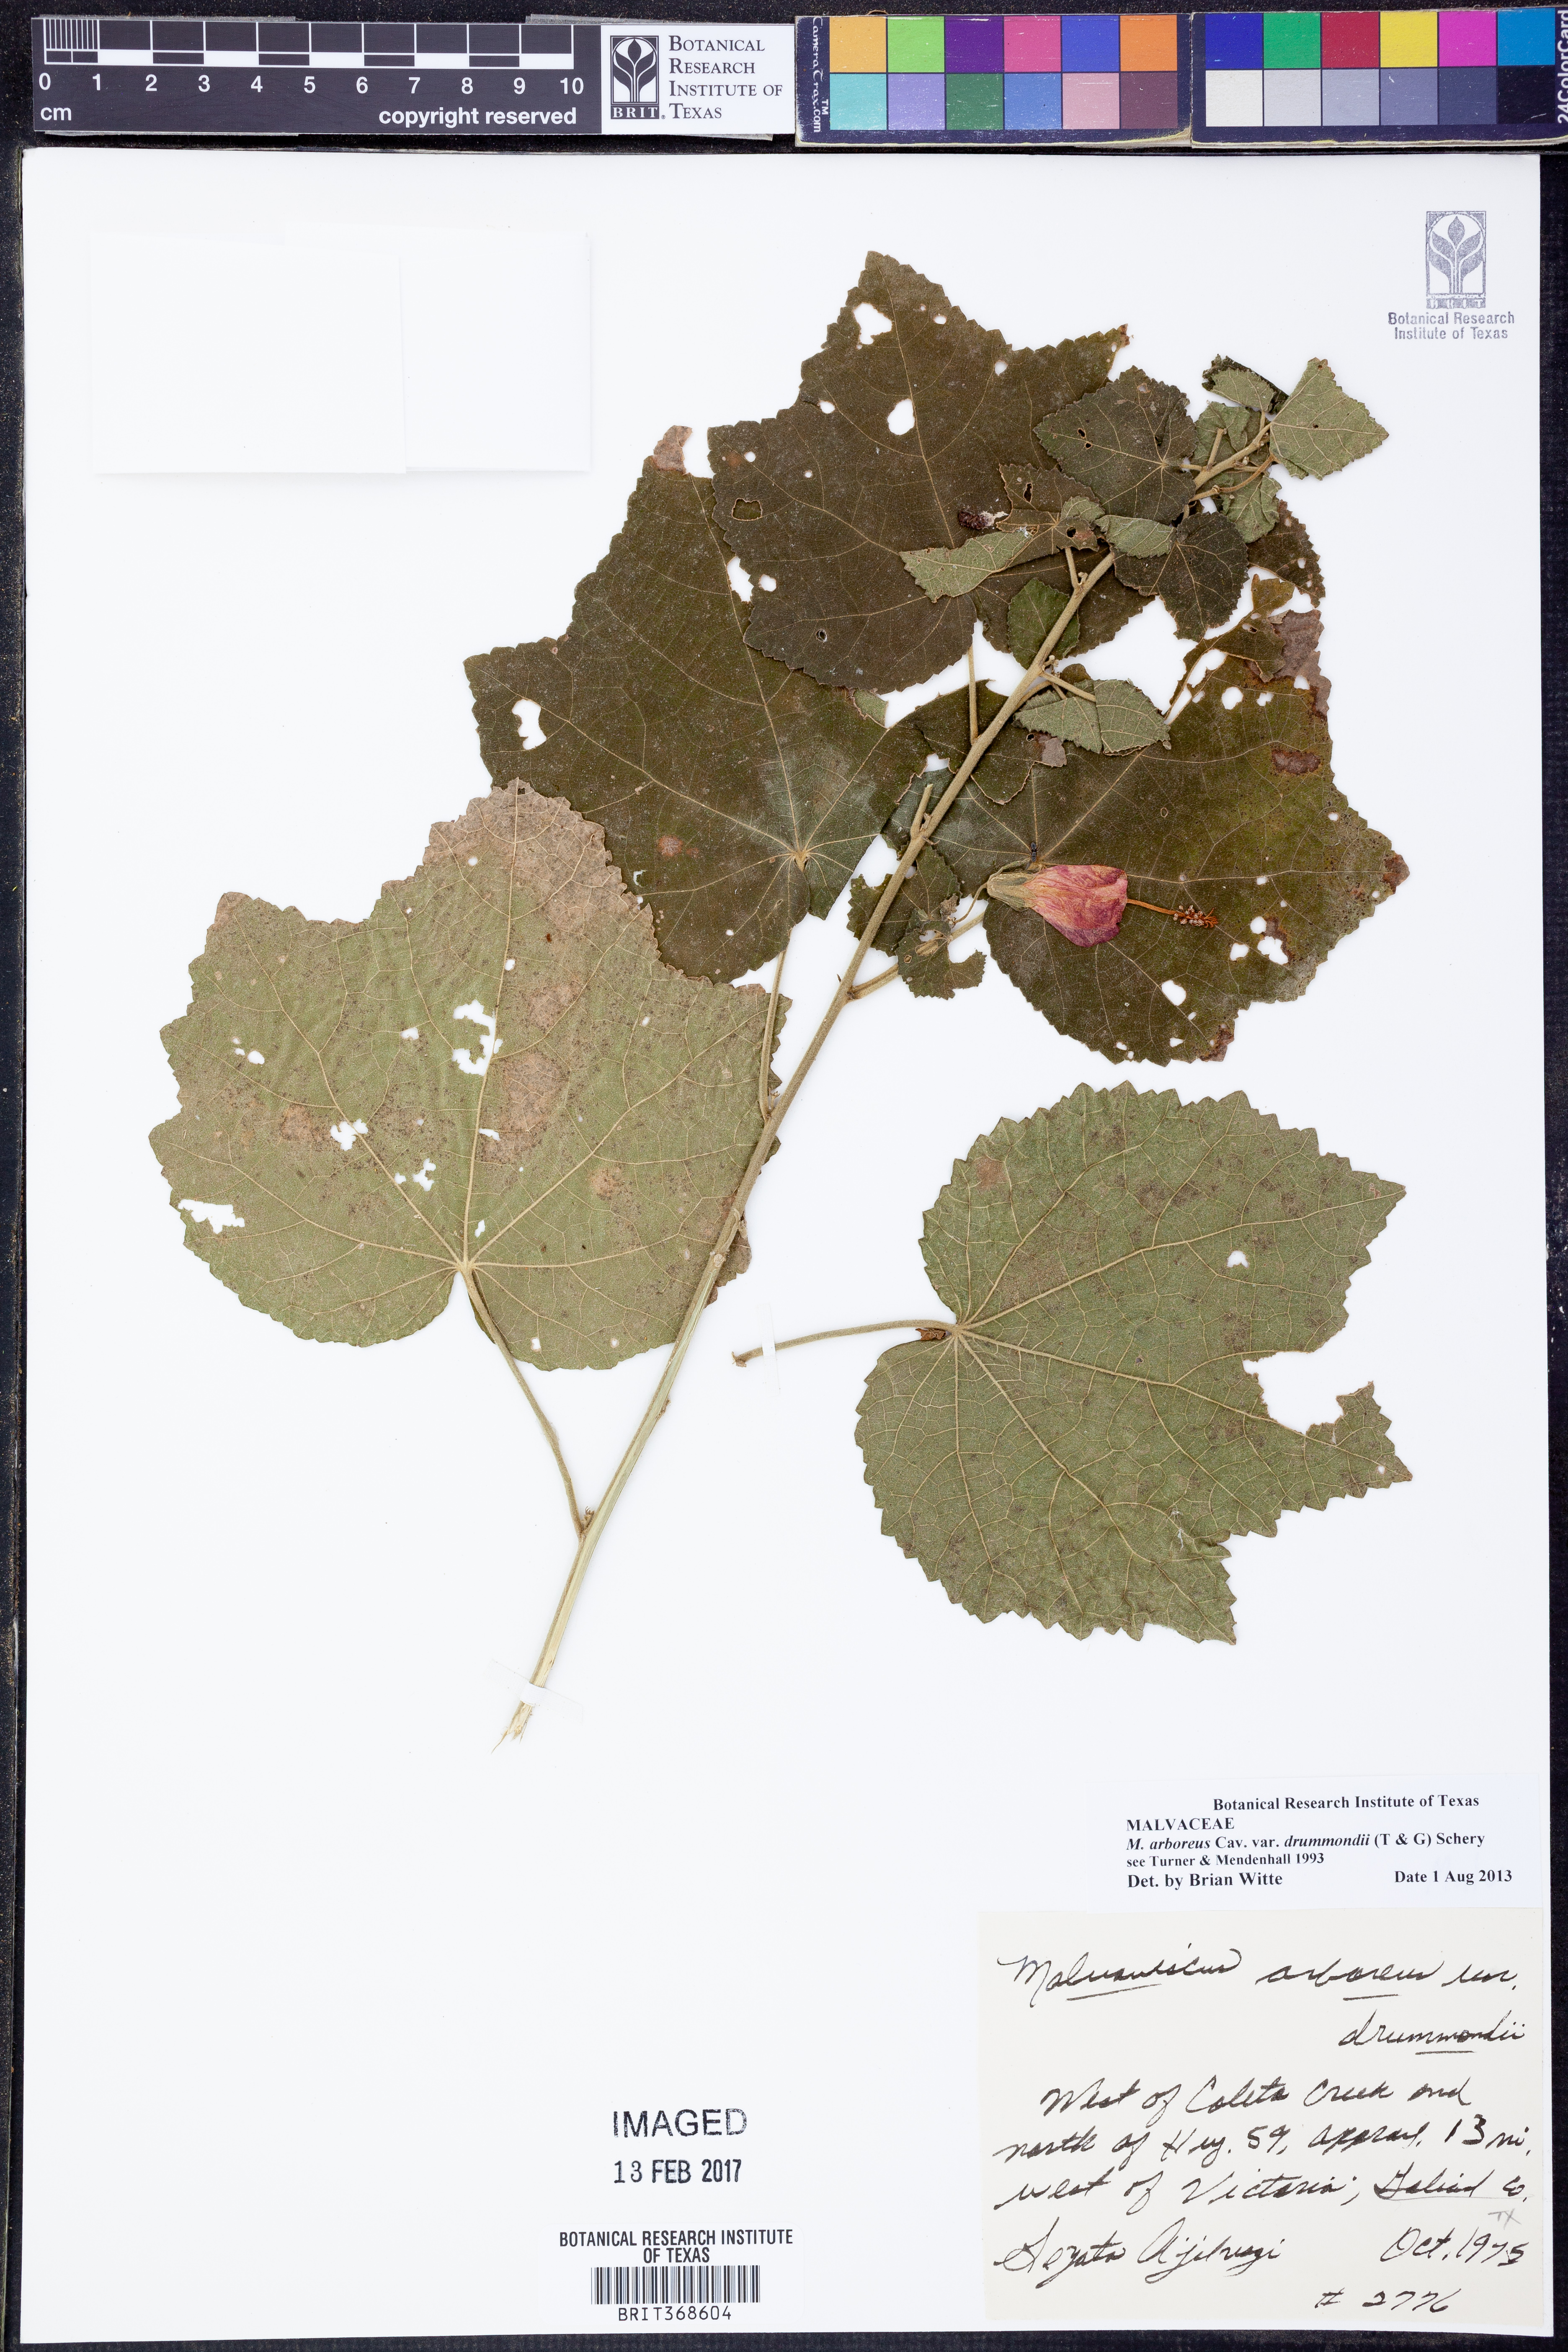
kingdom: Plantae
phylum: Tracheophyta
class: Magnoliopsida
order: Malvales
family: Malvaceae
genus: Malvaviscus
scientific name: Malvaviscus arboreus
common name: Wax mallow
